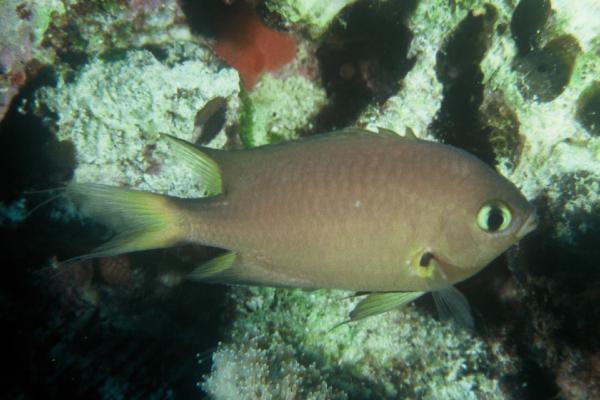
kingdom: Animalia
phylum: Chordata
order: Perciformes
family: Pomacentridae
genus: Chromis
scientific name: Chromis atripes
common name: Dark-fin chromis
